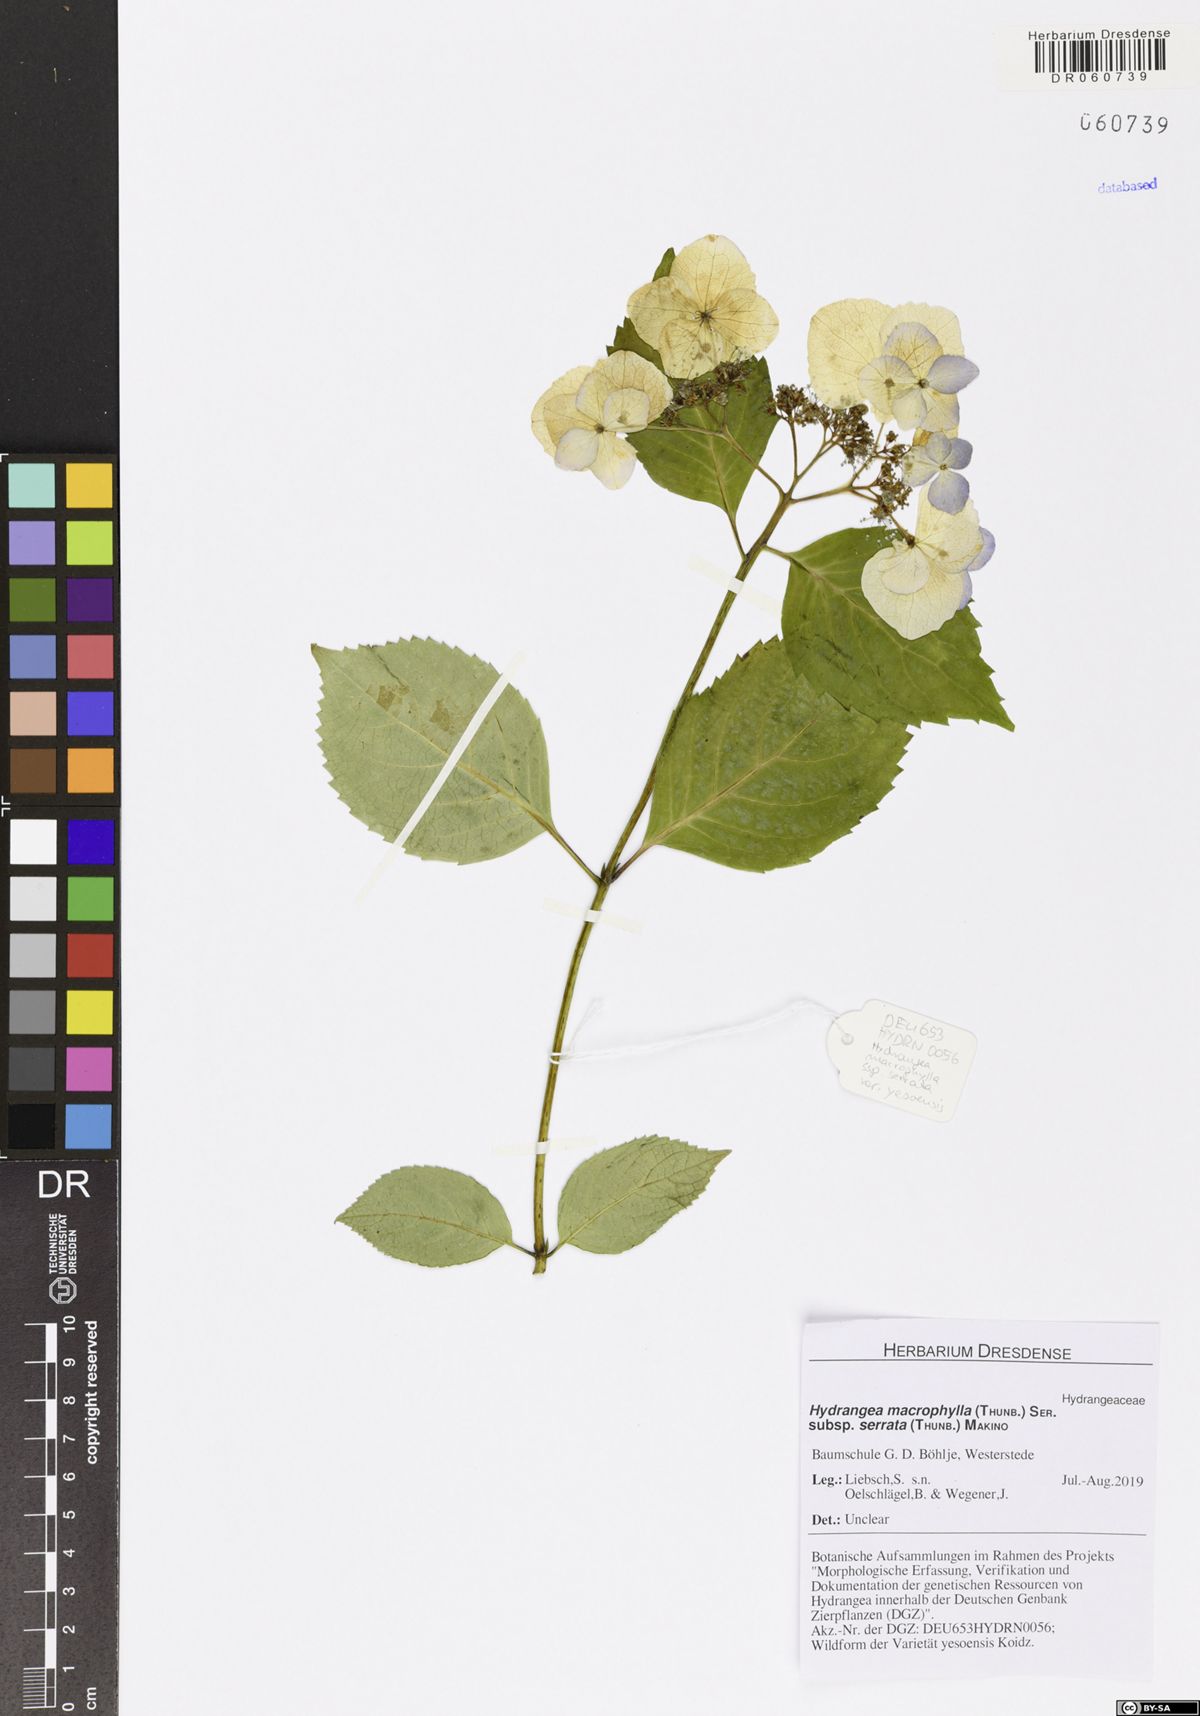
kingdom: Plantae
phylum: Tracheophyta
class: Magnoliopsida
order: Cornales
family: Hydrangeaceae
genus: Hydrangea
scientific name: Hydrangea serrata
